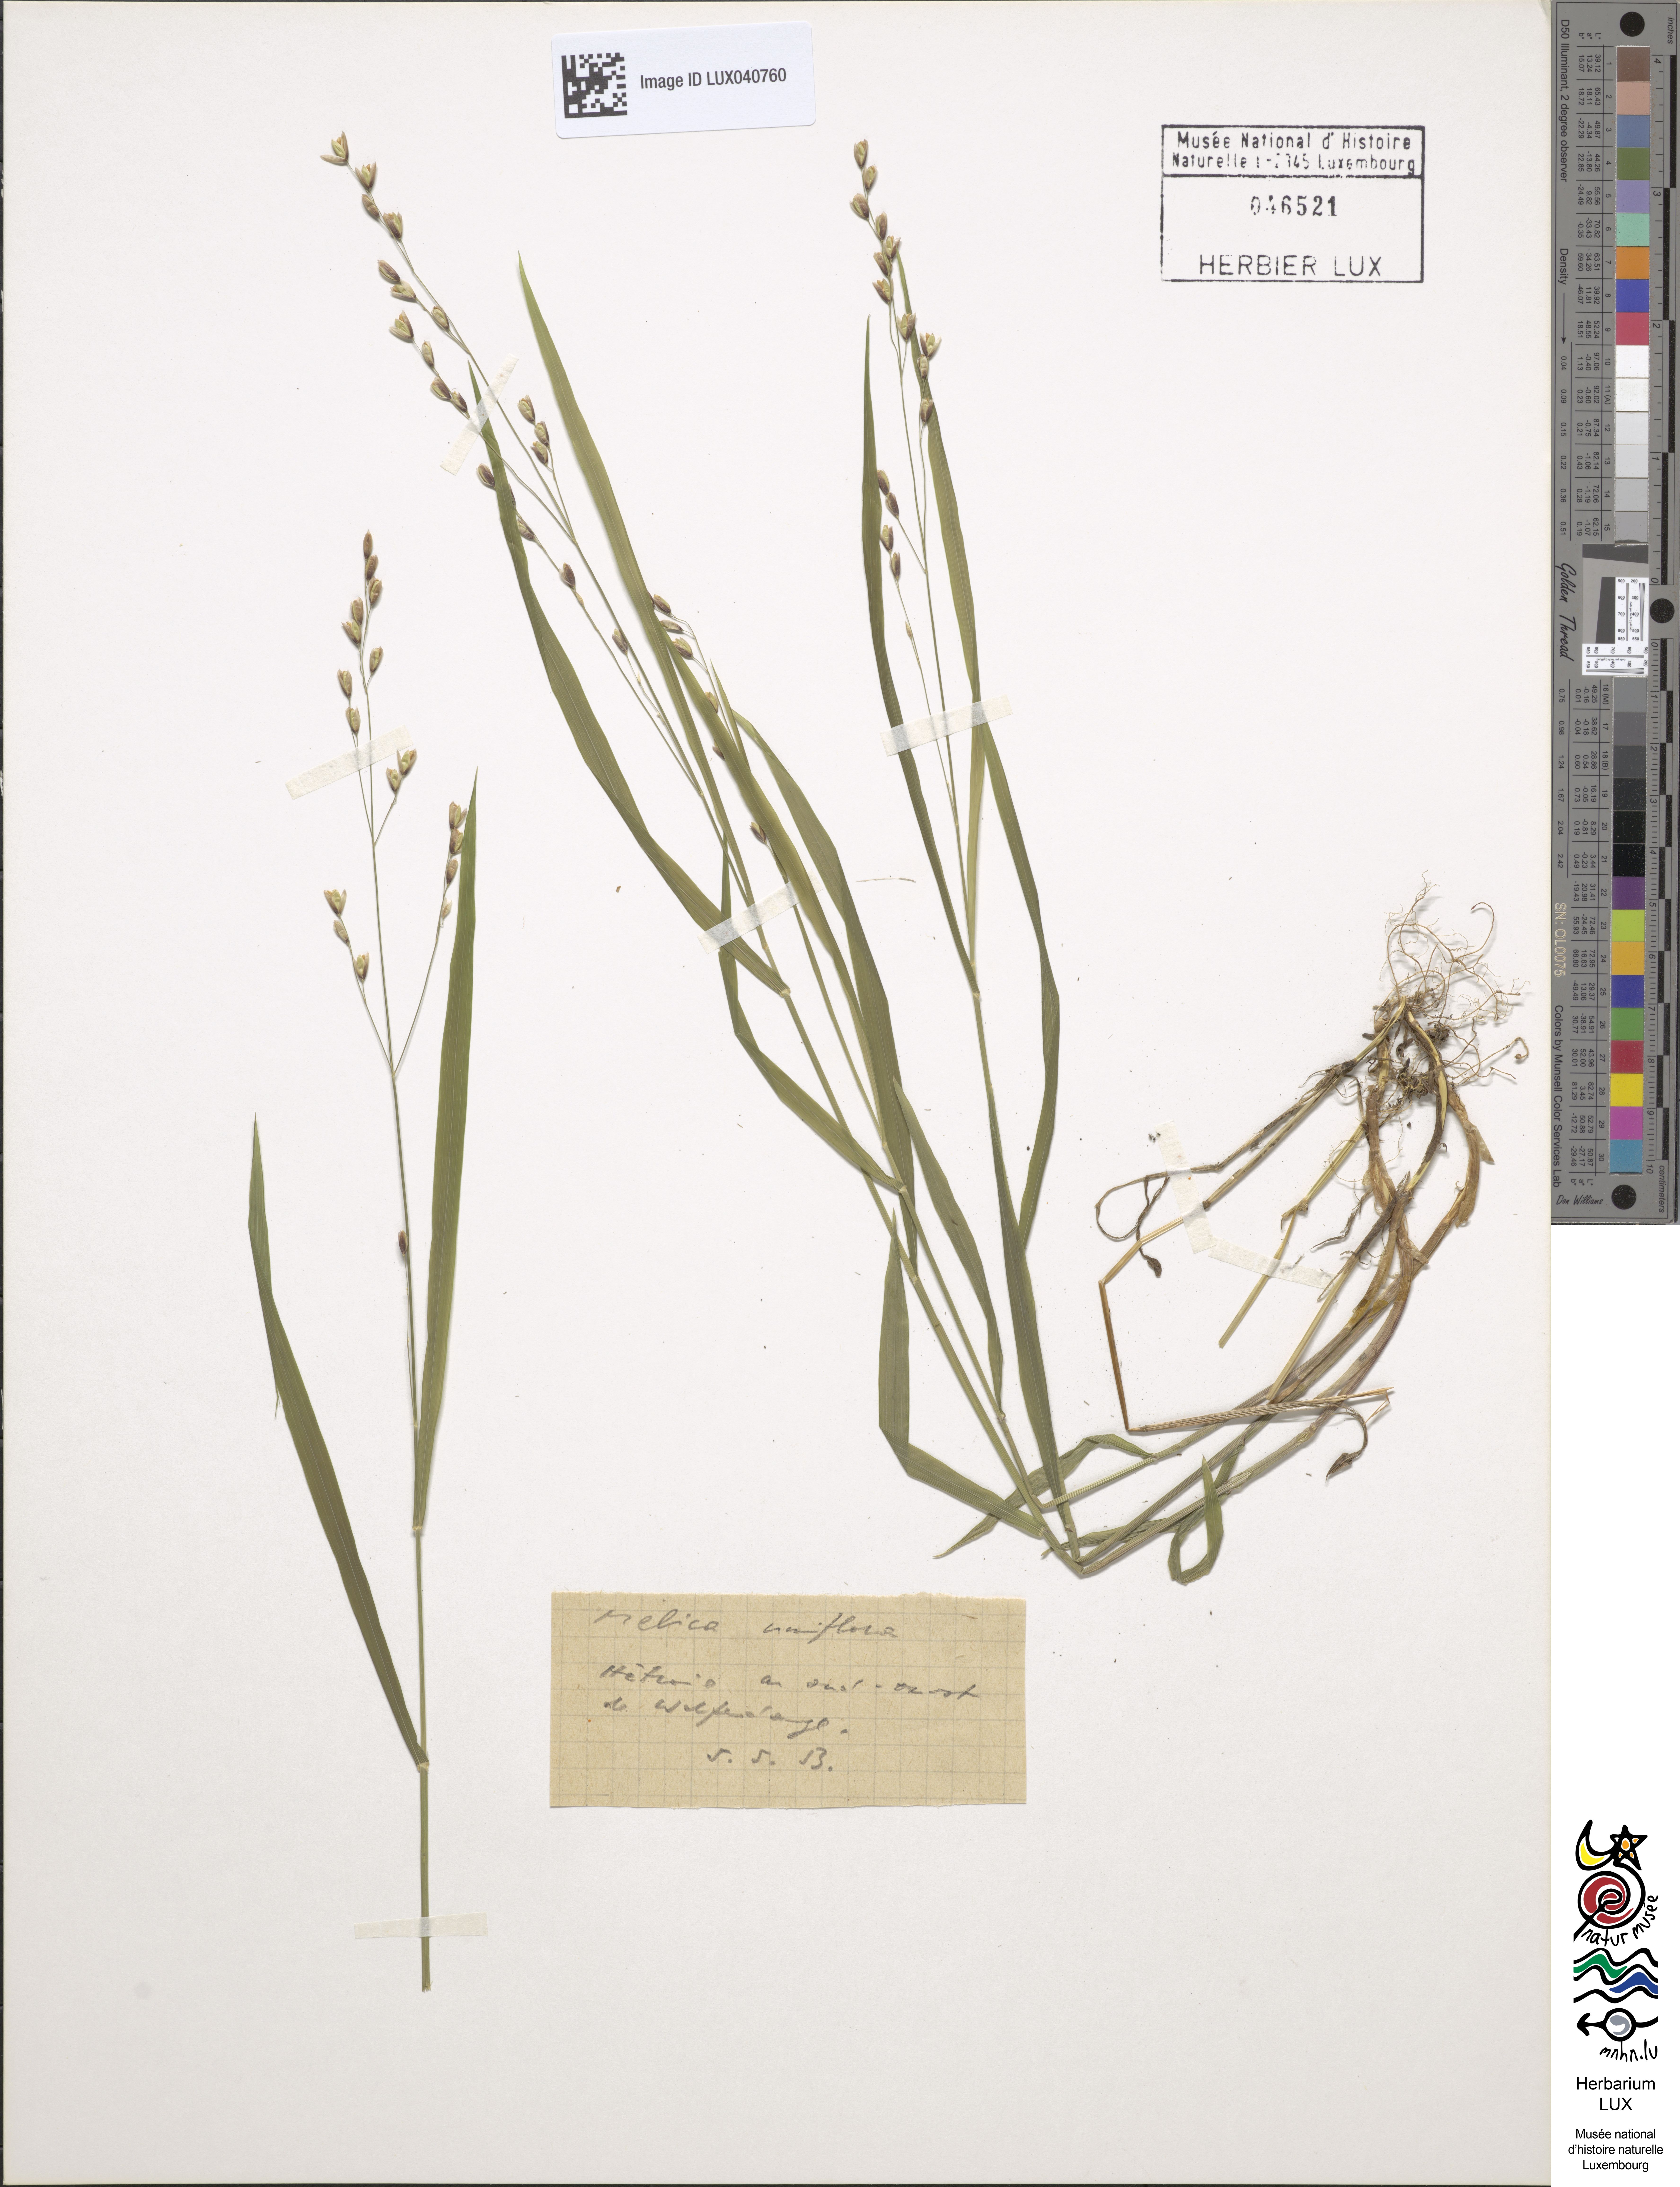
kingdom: Plantae
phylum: Tracheophyta
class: Liliopsida
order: Poales
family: Poaceae
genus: Melica
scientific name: Melica uniflora
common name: Wood melick
